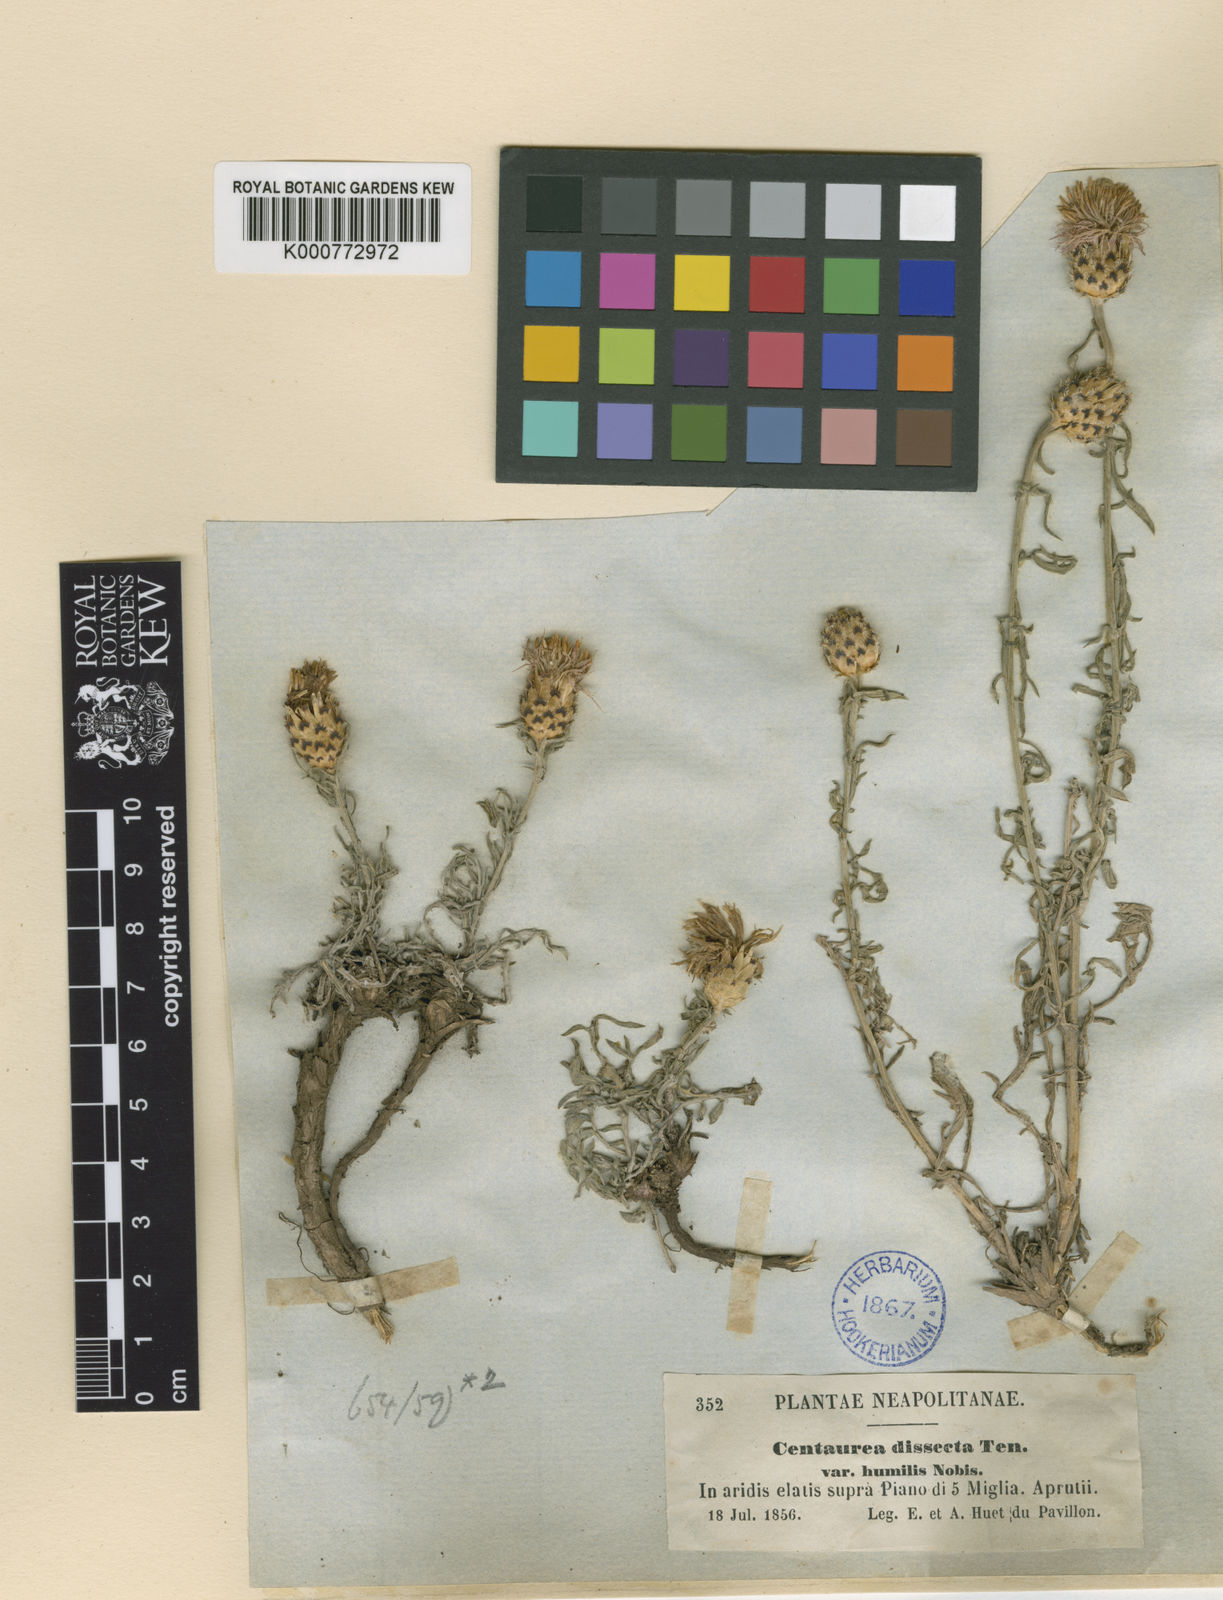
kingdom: Plantae
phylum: Tracheophyta
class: Magnoliopsida
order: Asterales
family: Asteraceae
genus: Centaurea
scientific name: Centaurea parlatoris
